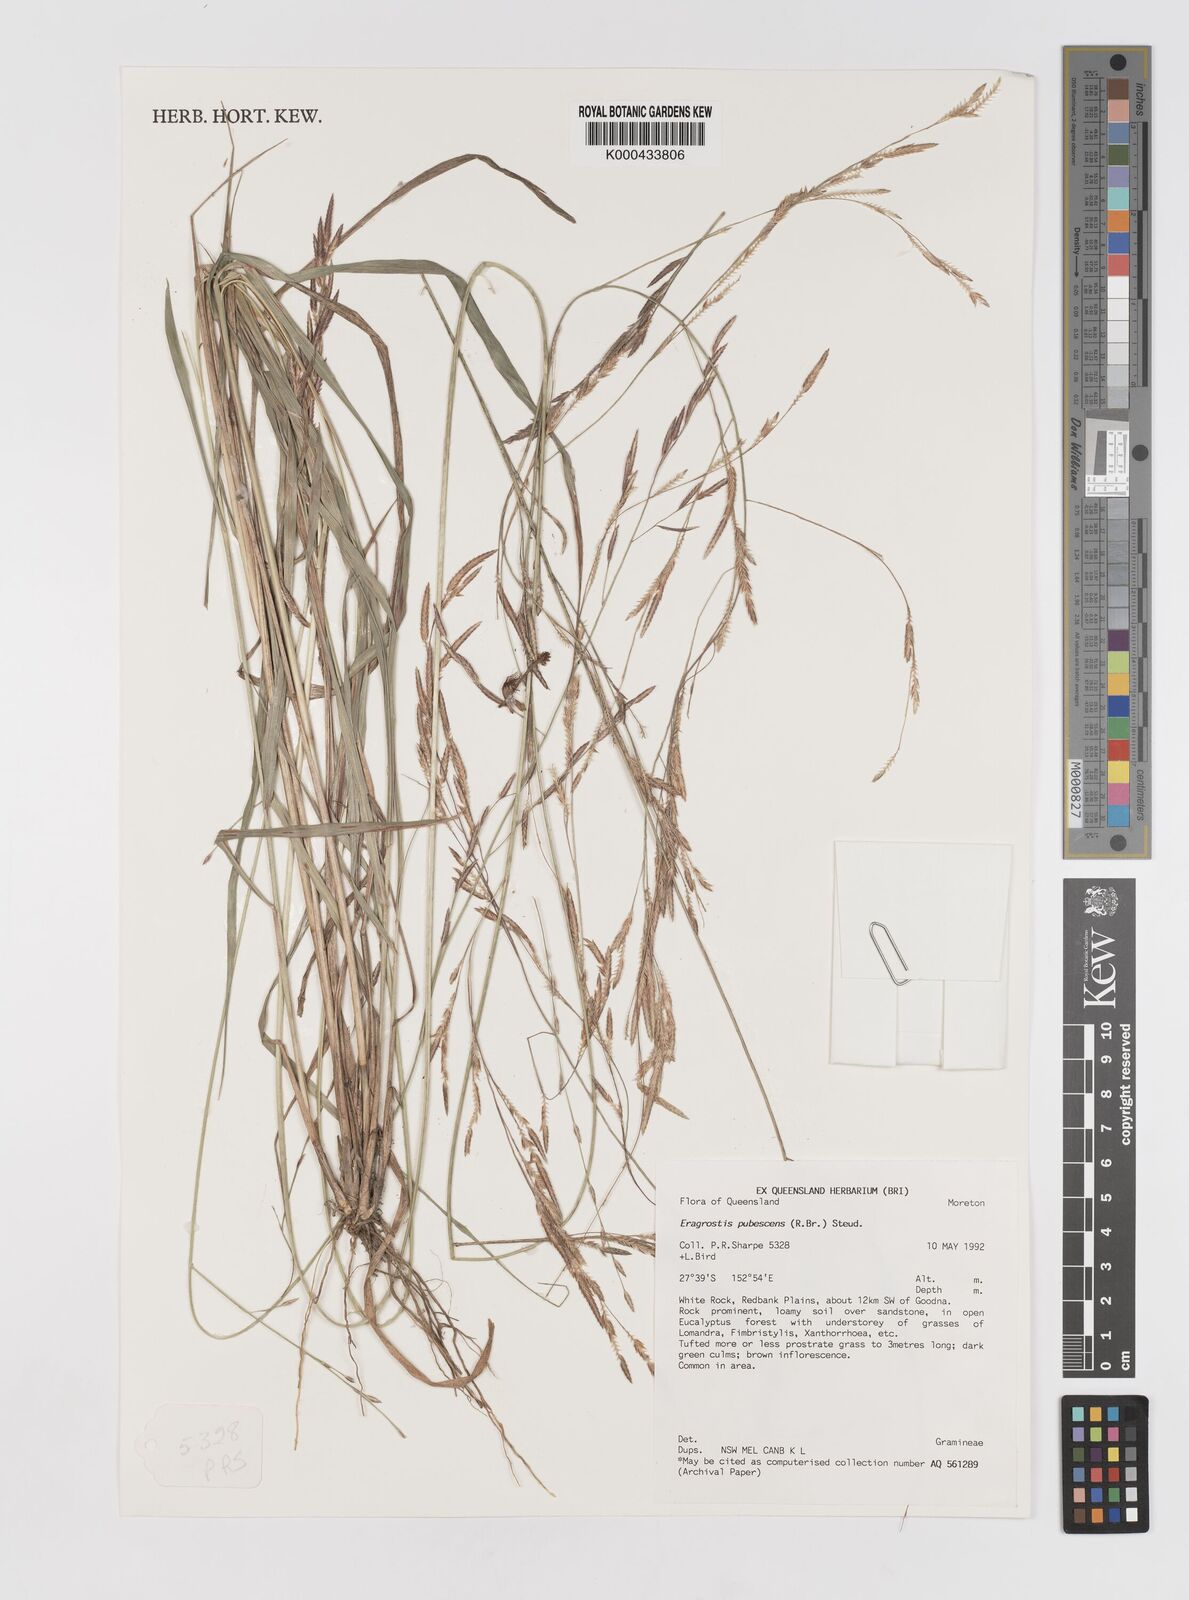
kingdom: Plantae
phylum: Tracheophyta
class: Liliopsida
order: Poales
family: Poaceae
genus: Eragrostis
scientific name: Eragrostis pubescens
